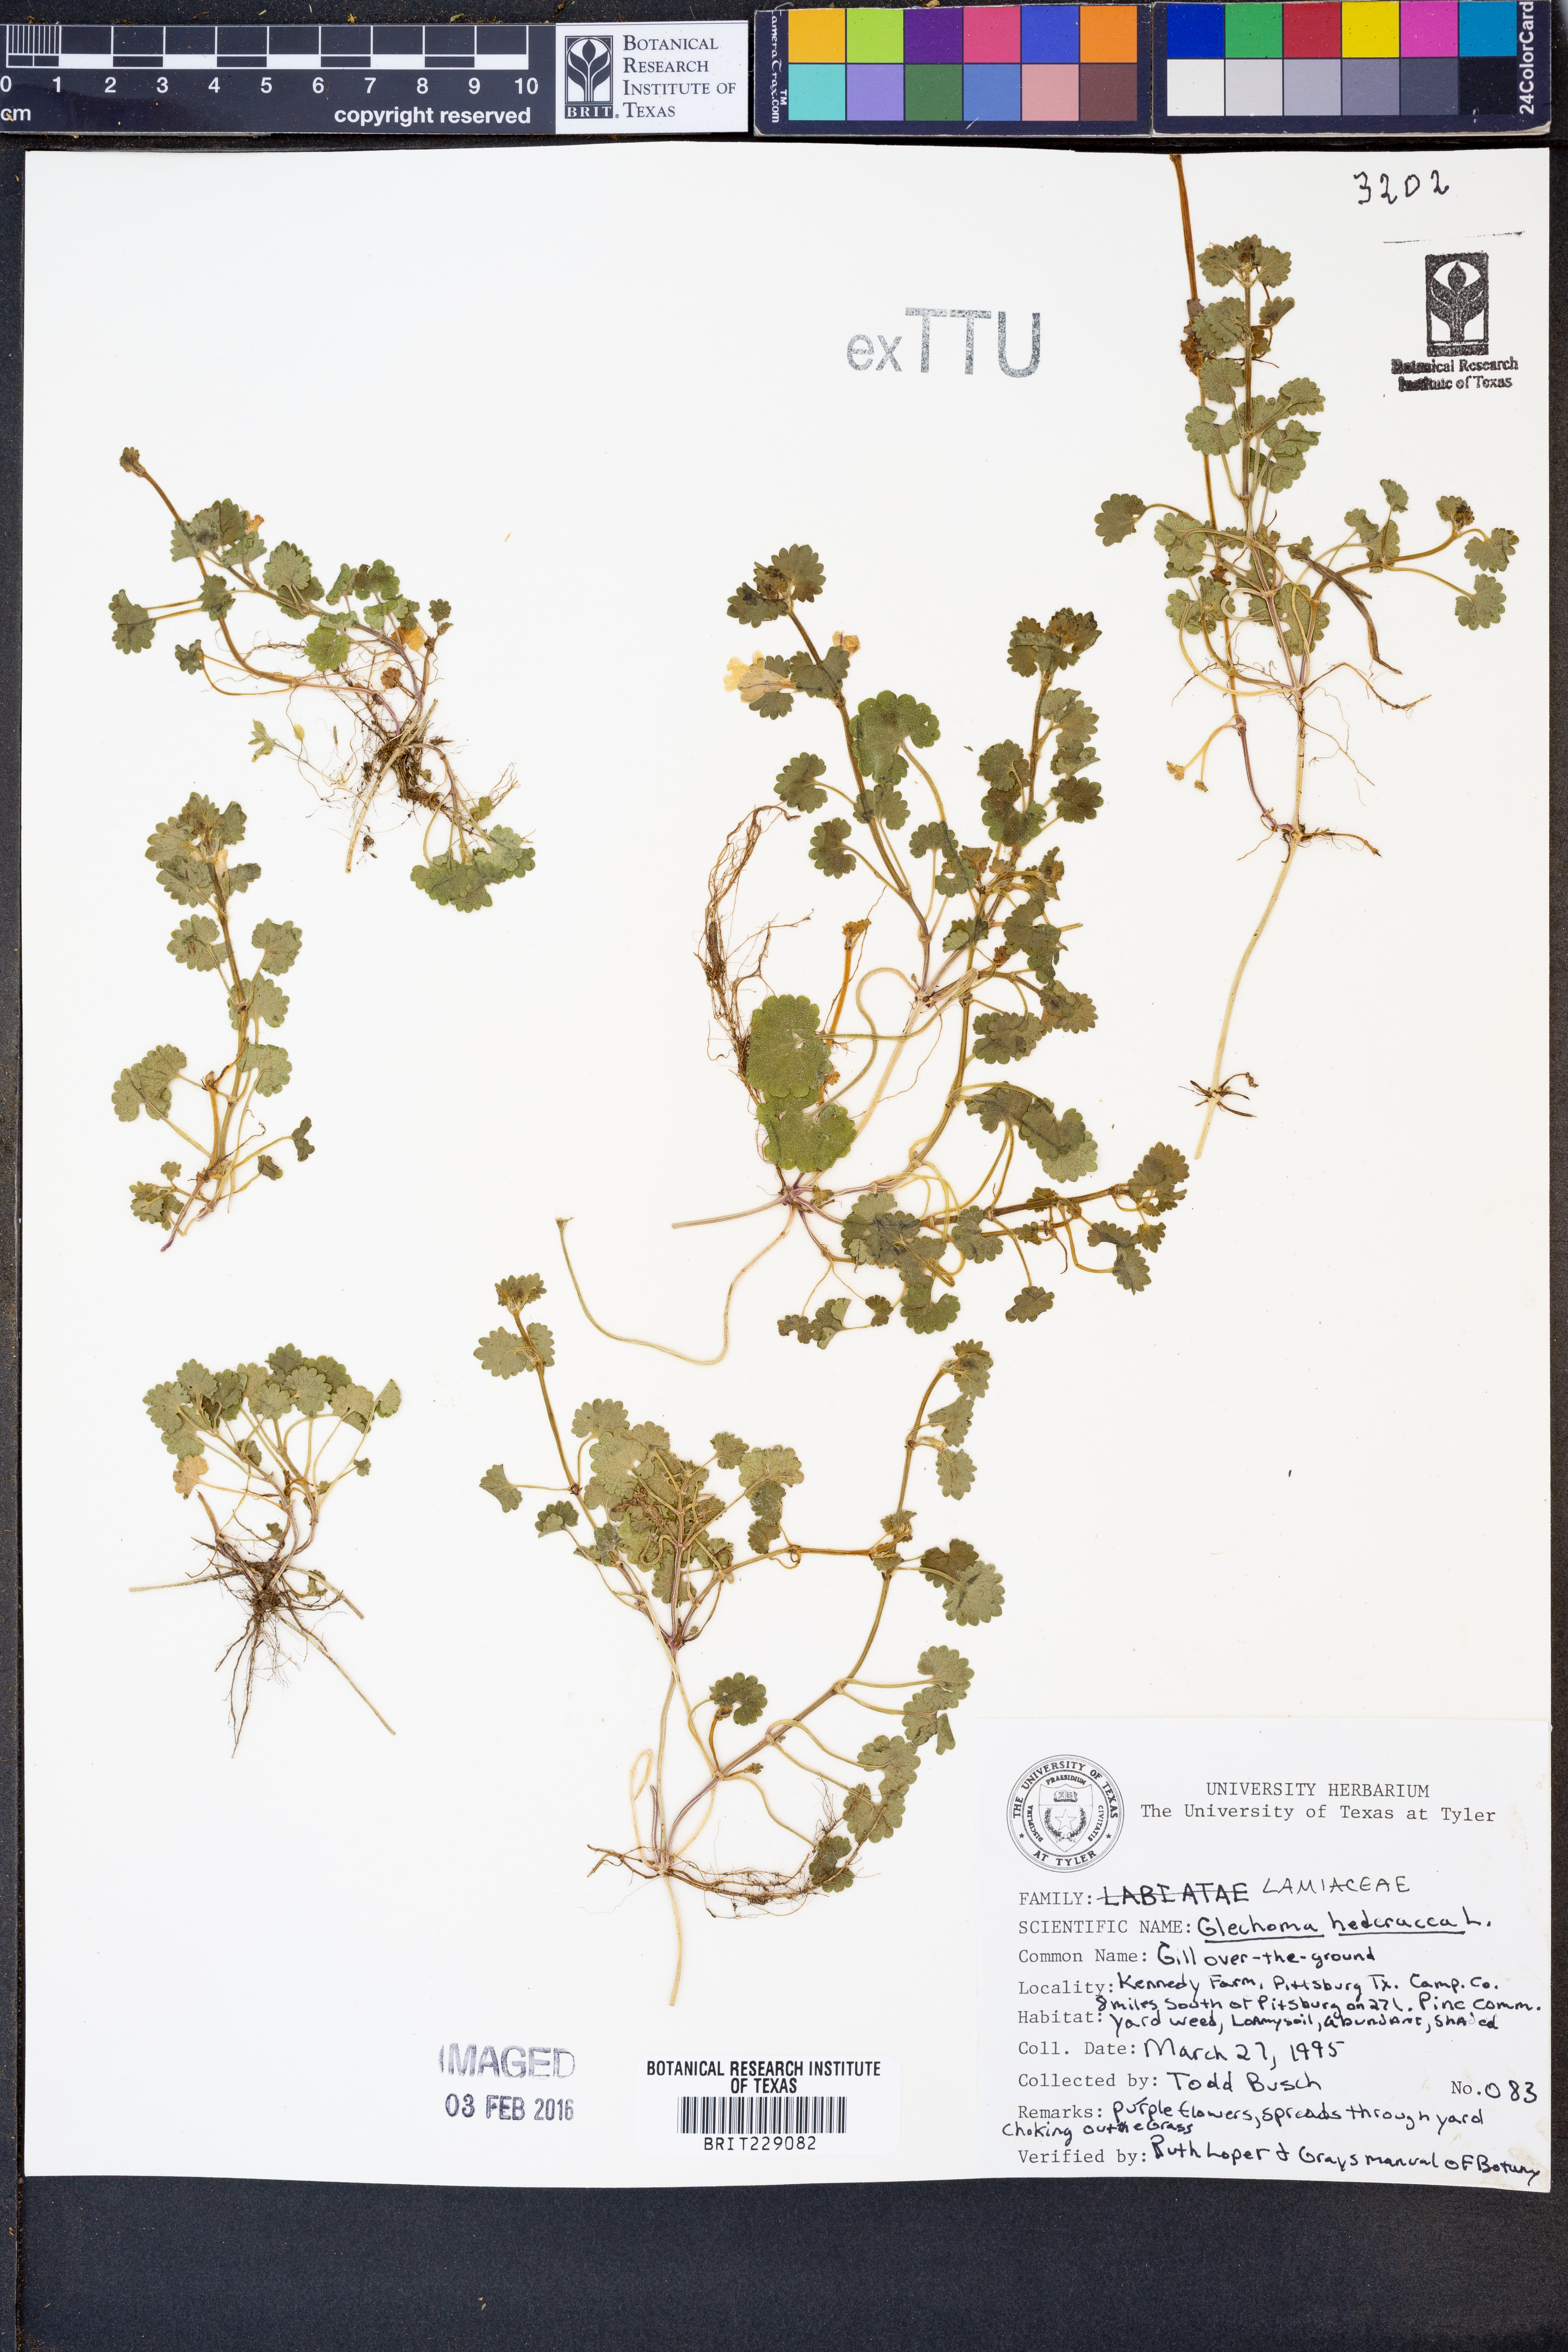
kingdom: Plantae
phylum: Tracheophyta
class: Magnoliopsida
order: Lamiales
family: Lamiaceae
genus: Glechoma
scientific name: Glechoma hederacea
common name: Ground ivy
